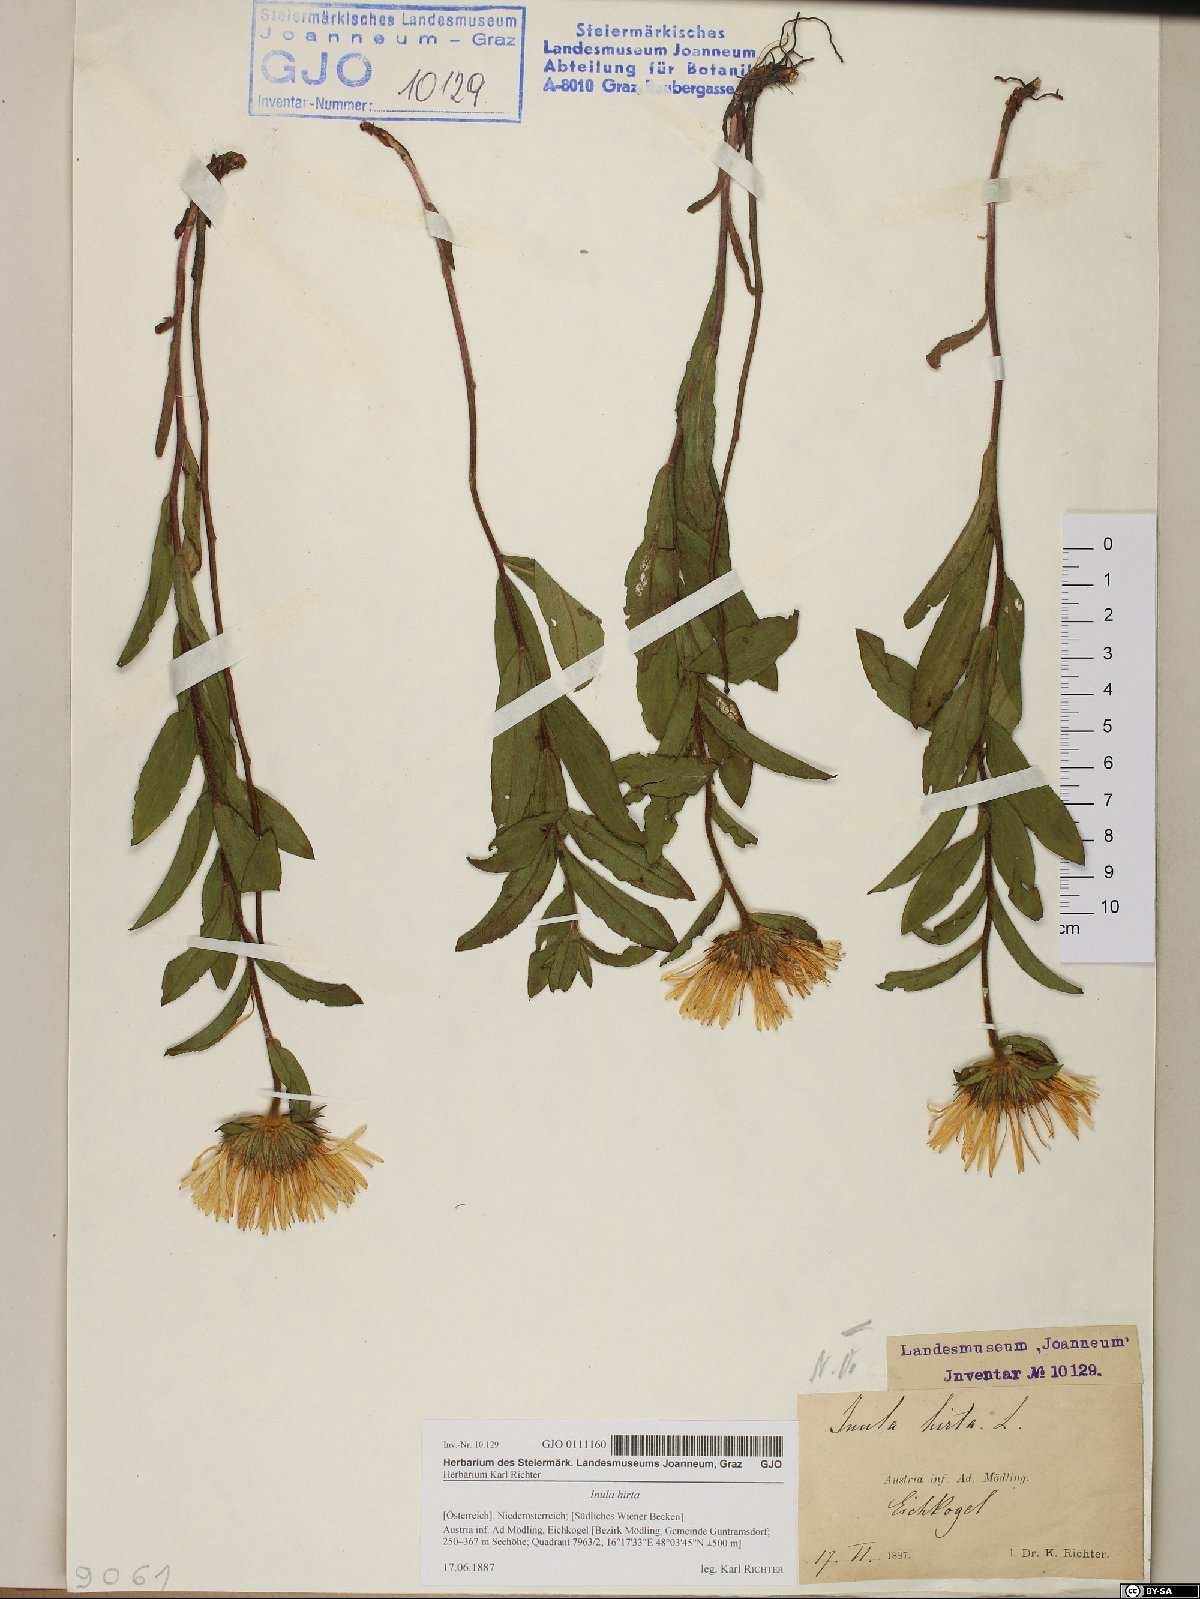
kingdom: Plantae
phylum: Tracheophyta
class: Magnoliopsida
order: Asterales
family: Asteraceae
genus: Pentanema
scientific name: Pentanema hirtum
